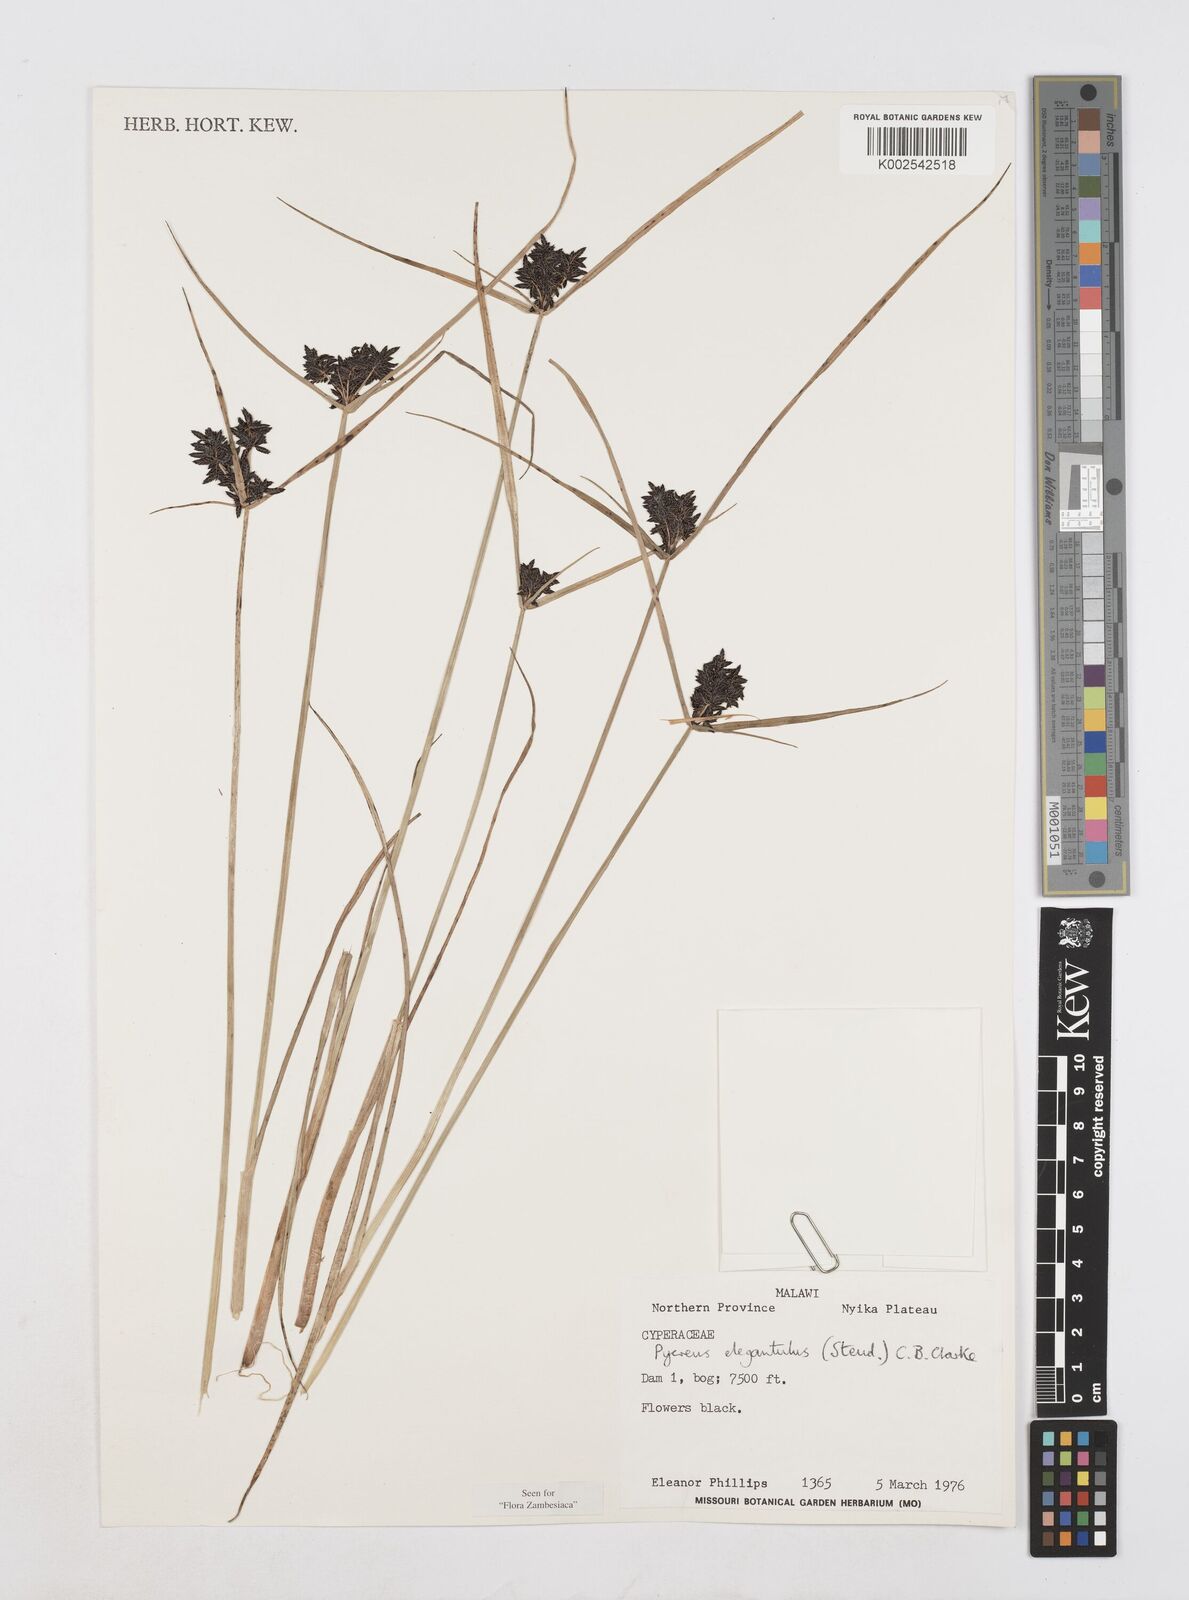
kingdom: Plantae
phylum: Tracheophyta
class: Liliopsida
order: Poales
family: Cyperaceae
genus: Cyperus
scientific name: Cyperus elegantulus
